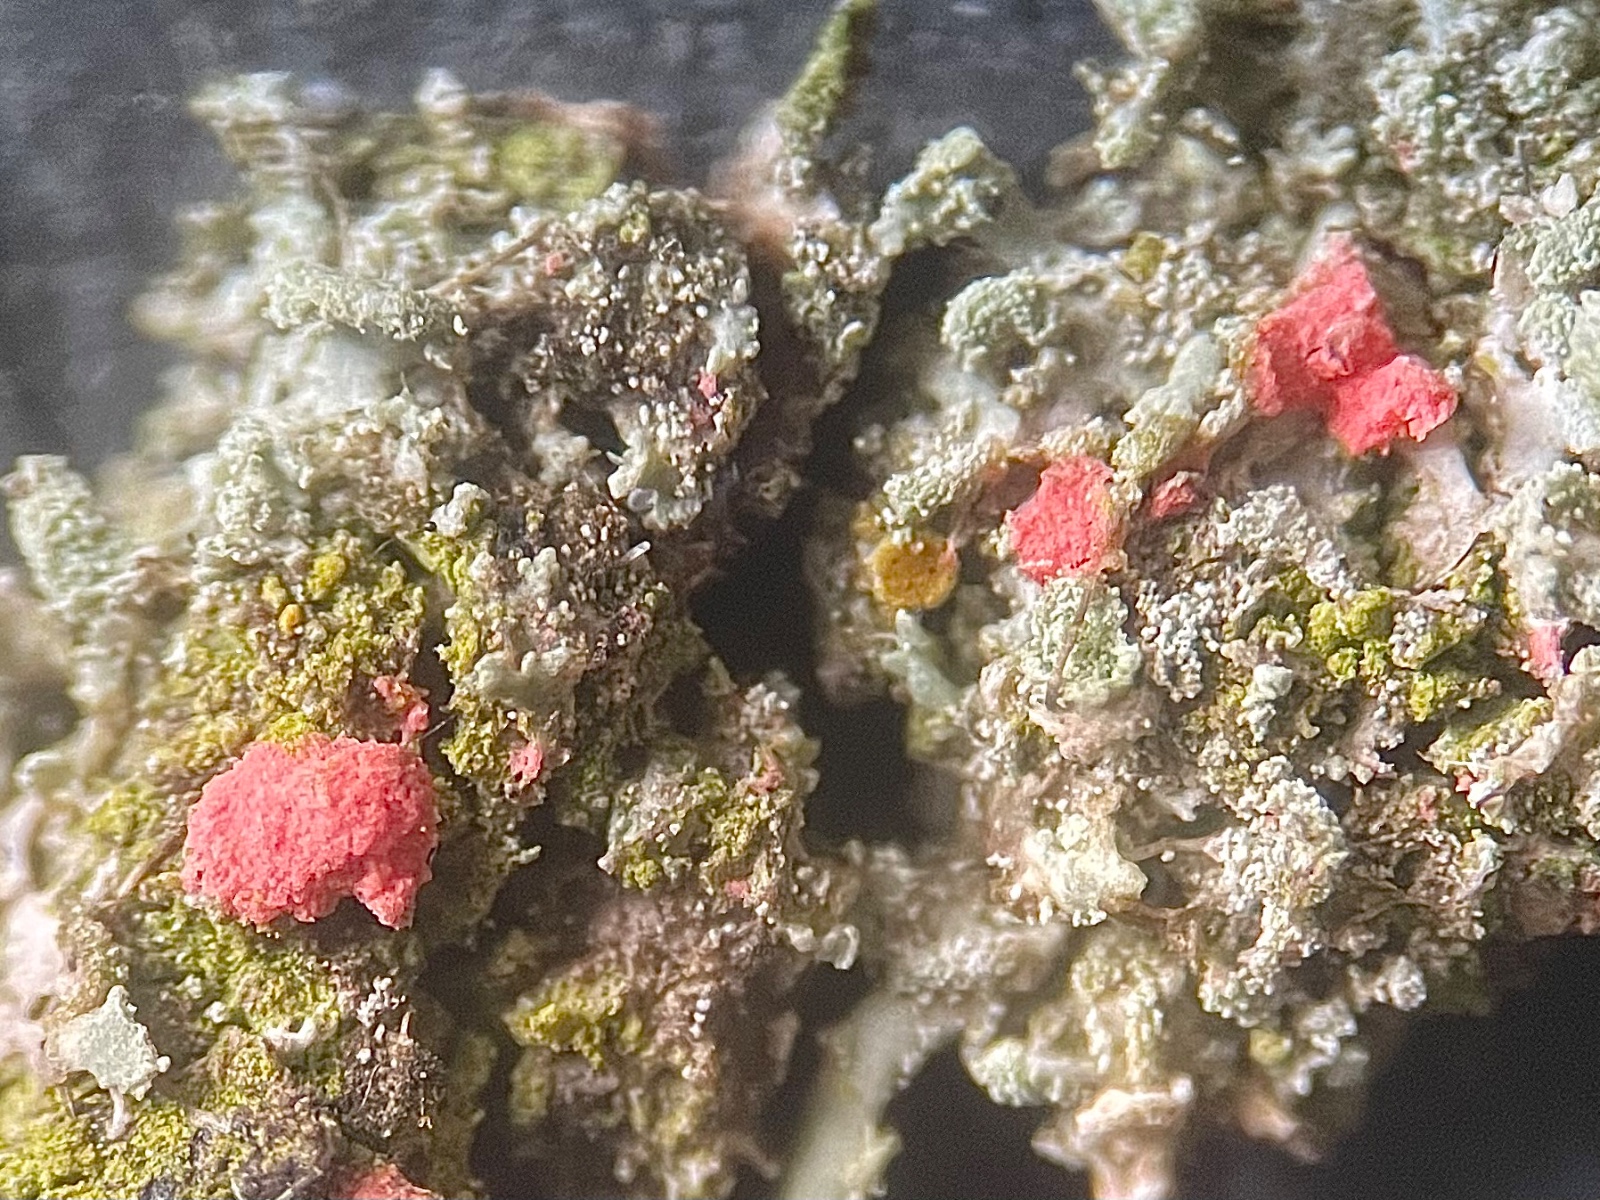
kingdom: Fungi
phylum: Ascomycota
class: Sordariomycetes
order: Hypocreales
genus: Illosporiopsis
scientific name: Illosporiopsis christiansenii
